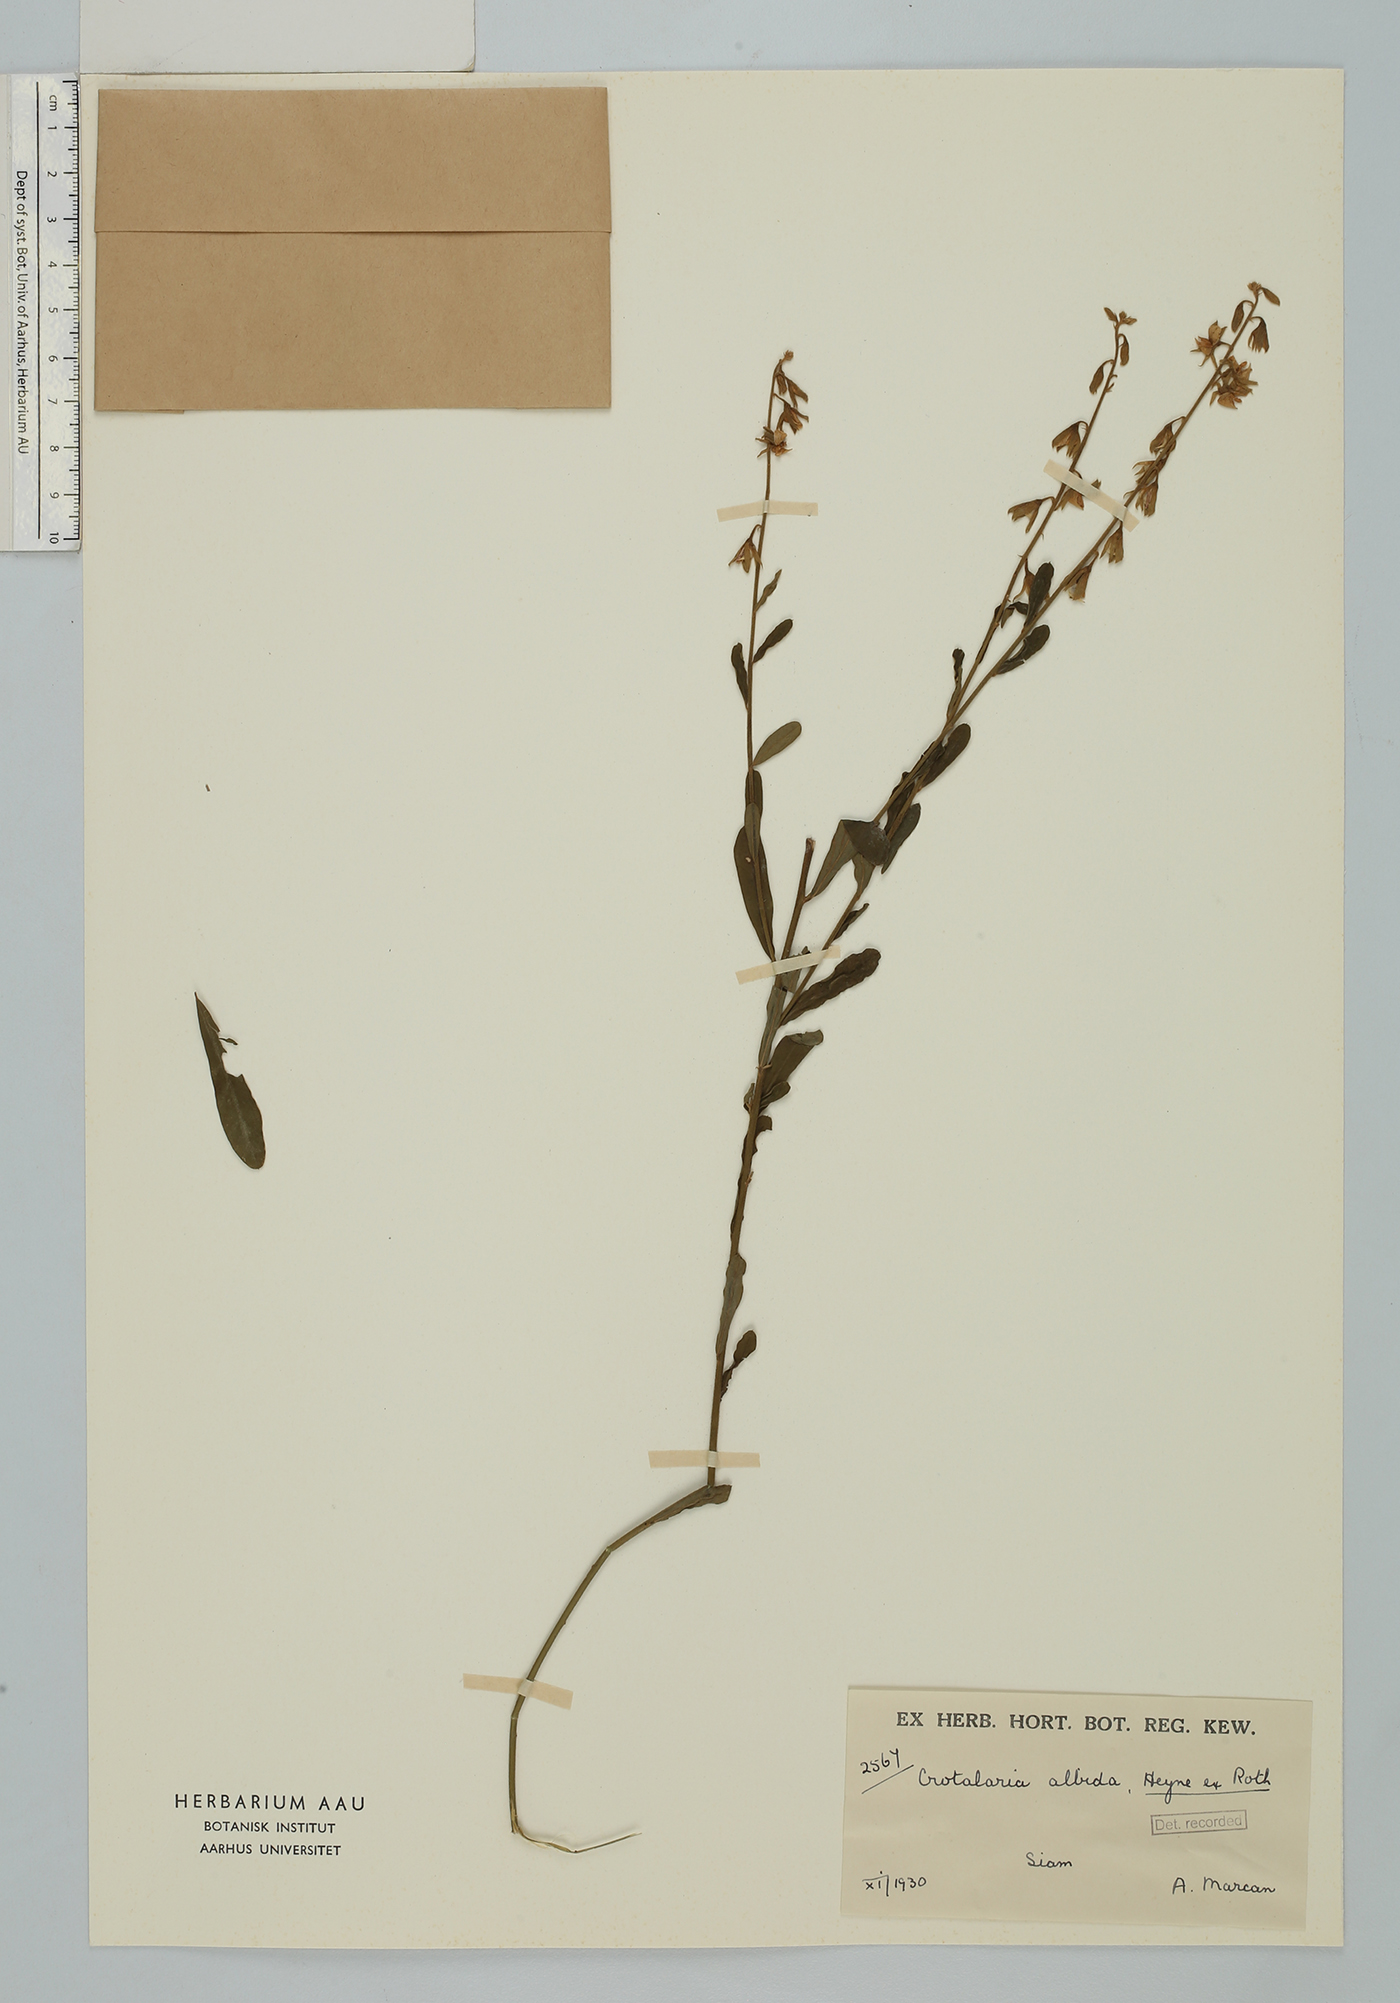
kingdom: Plantae
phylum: Tracheophyta
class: Magnoliopsida
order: Fabales
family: Fabaceae
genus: Crotalaria
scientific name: Crotalaria albida
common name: Taiwan crotalaria
